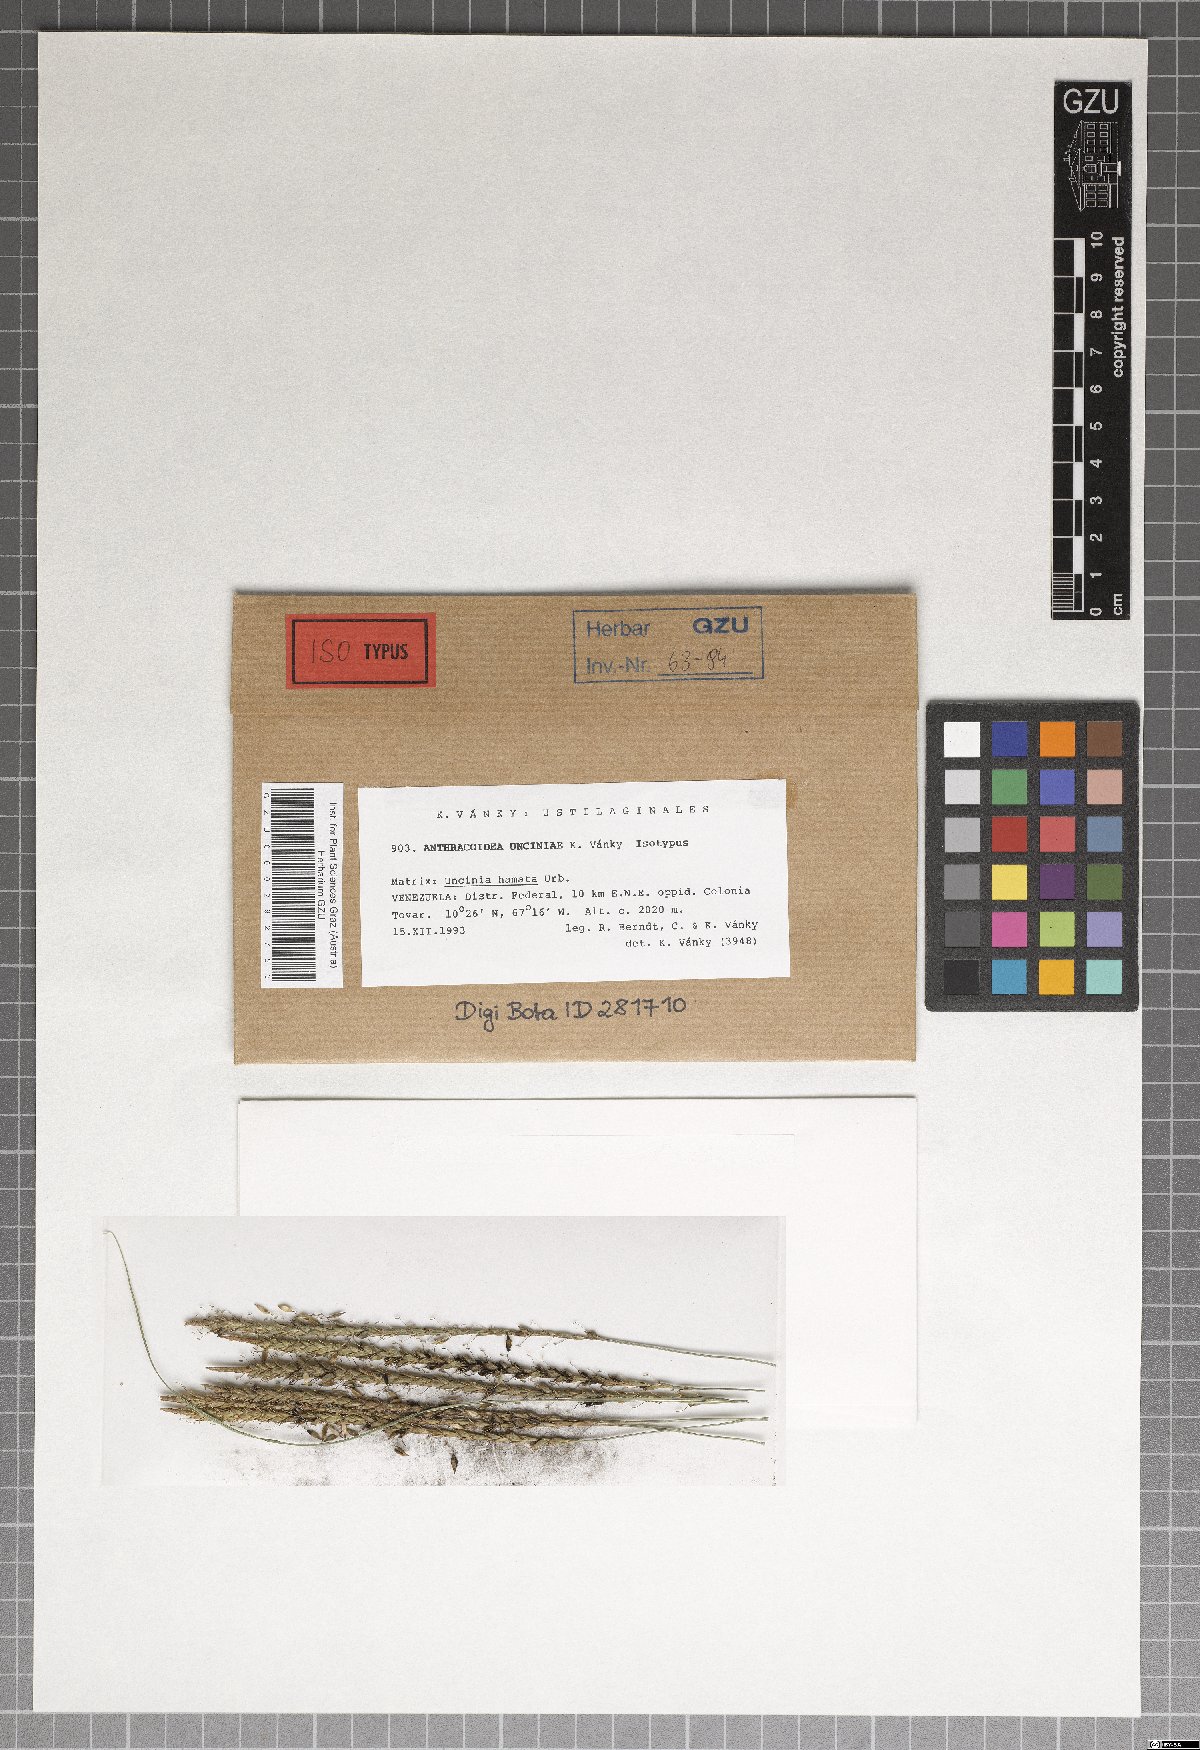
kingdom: Fungi
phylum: Basidiomycota
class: Ustilaginomycetes
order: Ustilaginales
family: Anthracoideaceae
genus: Anthracoidea
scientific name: Anthracoidea unciniae
